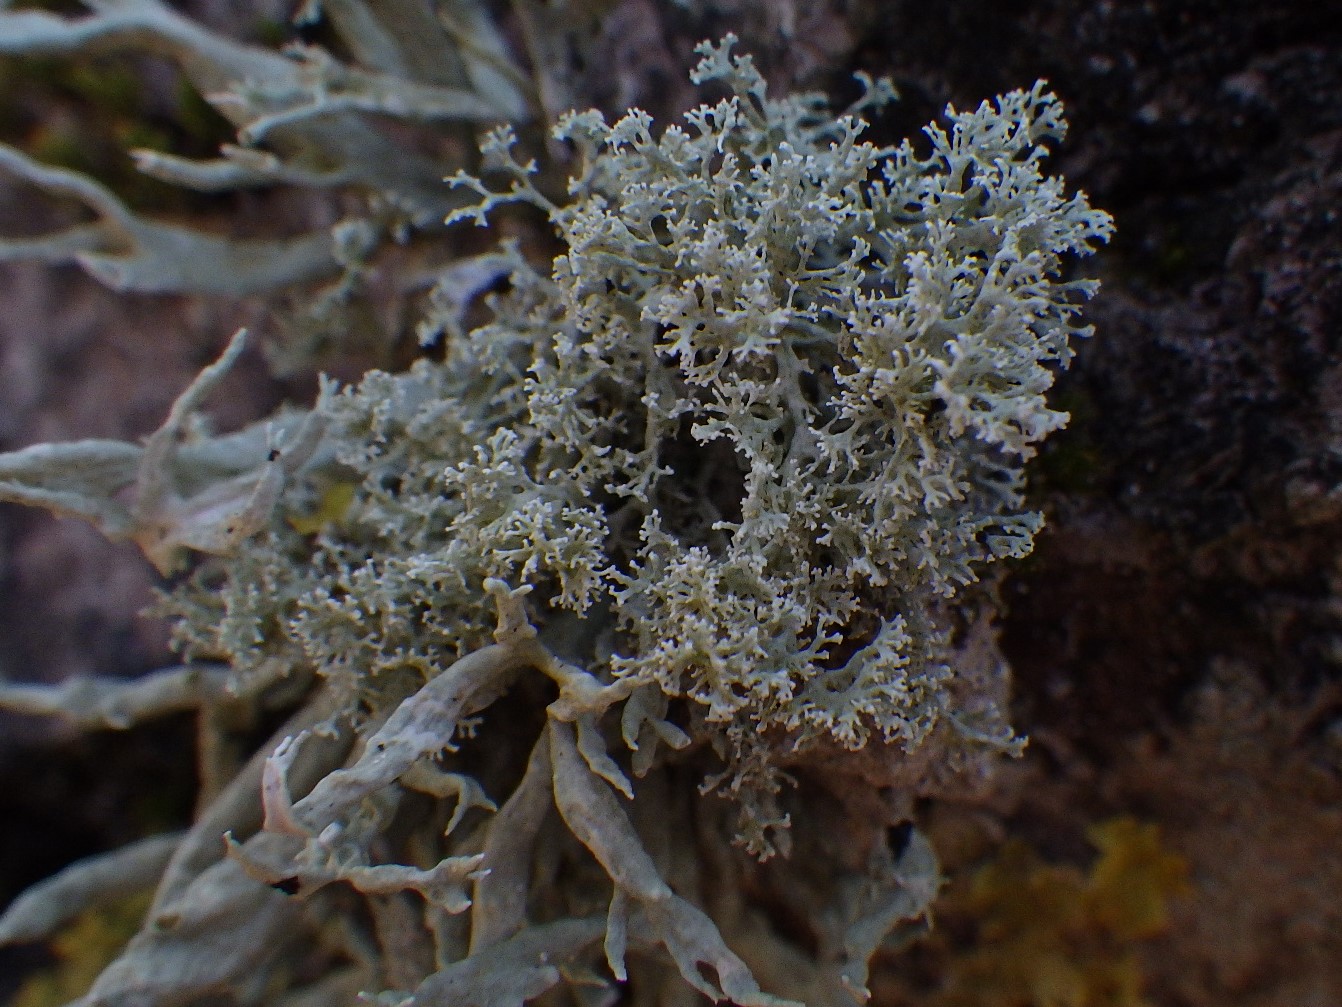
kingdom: Fungi
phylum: Ascomycota
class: Lecanoromycetes
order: Lecanorales
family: Sphaerophoraceae
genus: Sphaerophorus
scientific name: Sphaerophorus globosus
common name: almindelig kuglelav
